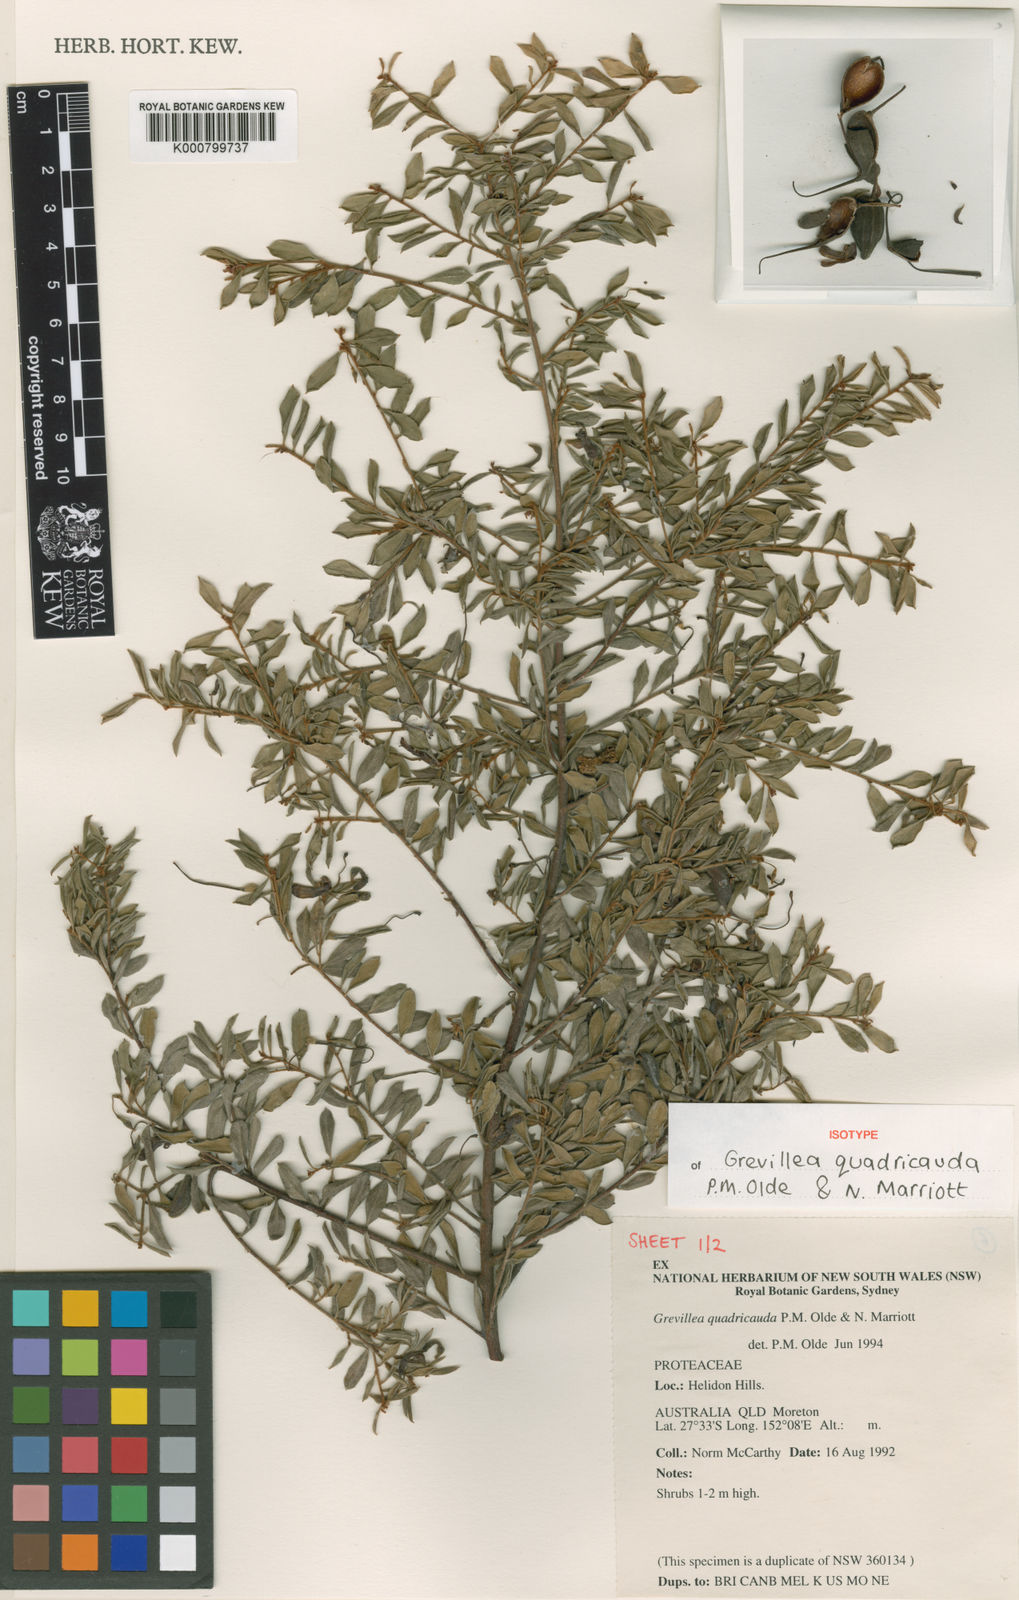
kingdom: Plantae
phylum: Tracheophyta
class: Magnoliopsida
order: Proteales
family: Proteaceae
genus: Grevillea
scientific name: Grevillea quadricauda
